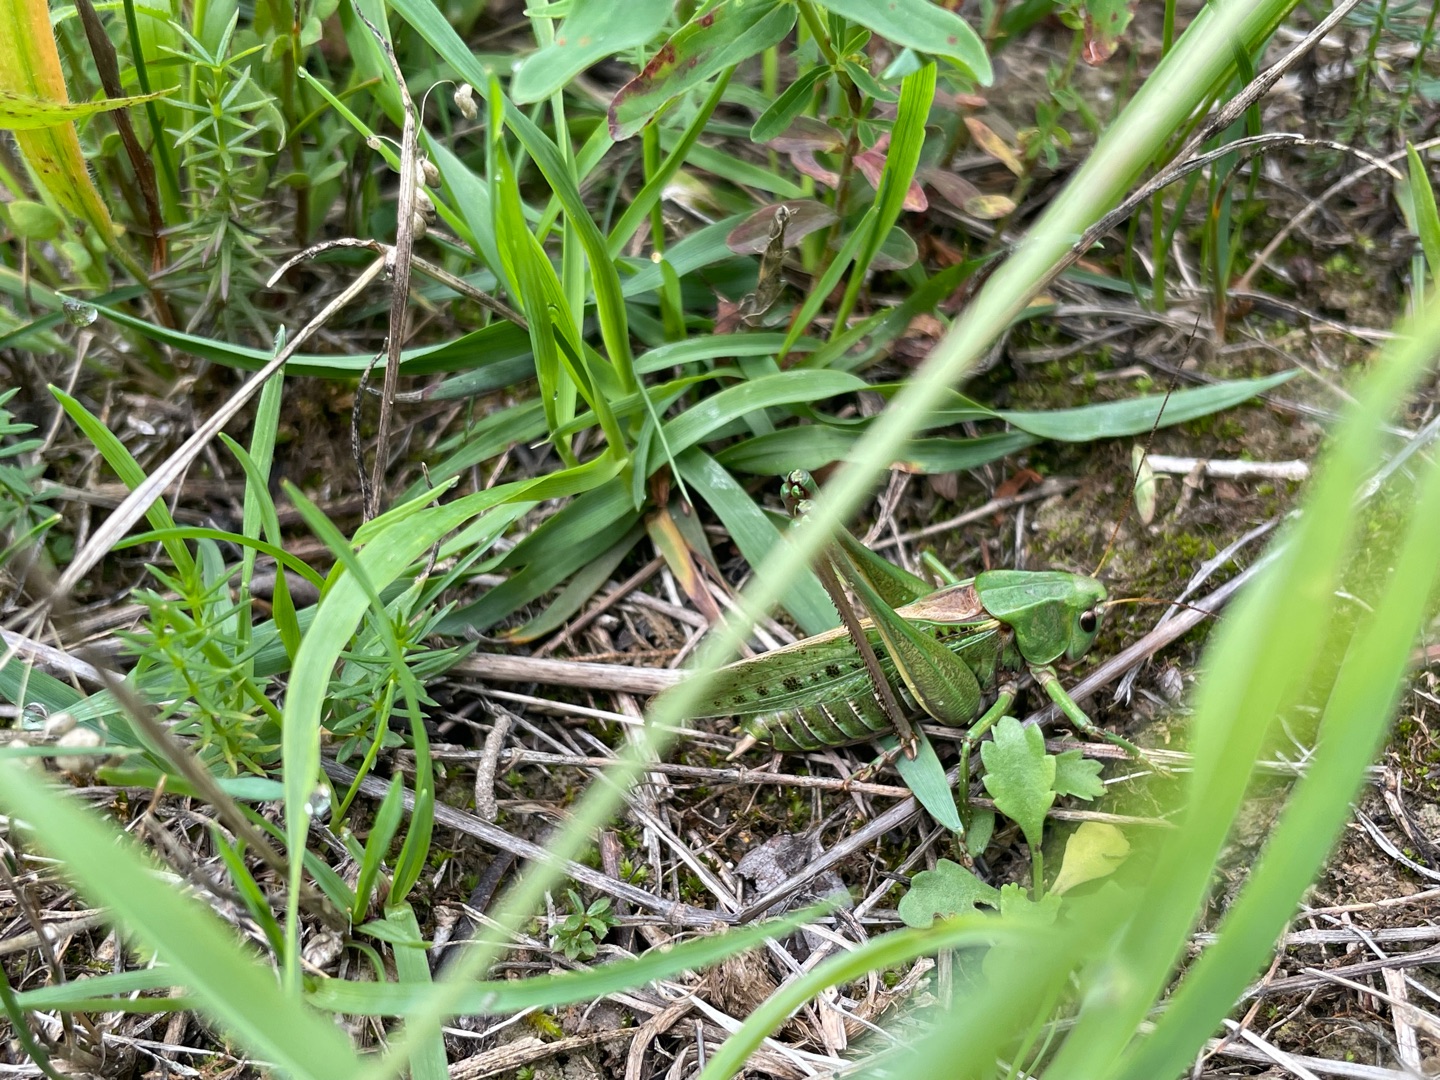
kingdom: Animalia
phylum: Arthropoda
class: Insecta
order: Orthoptera
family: Tettigoniidae
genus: Decticus
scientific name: Decticus verrucivorus
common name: Vortebider
